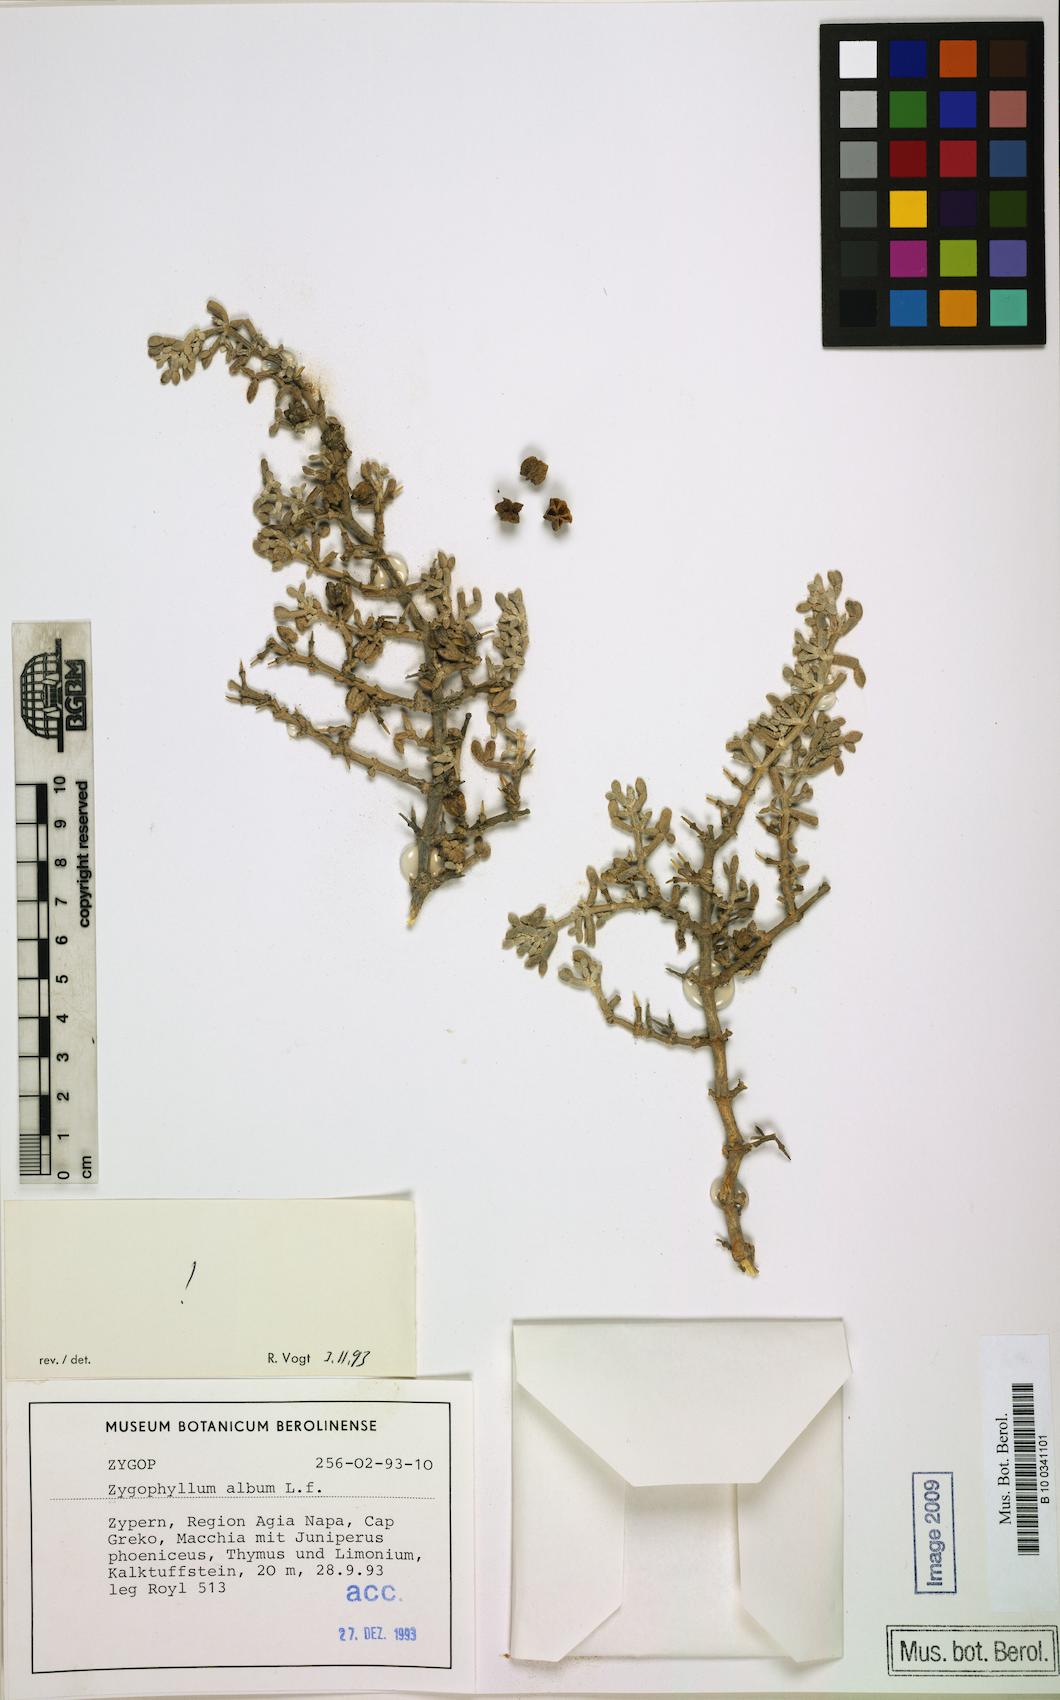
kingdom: Plantae
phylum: Tracheophyta
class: Magnoliopsida
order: Zygophyllales
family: Zygophyllaceae
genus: Tetraena
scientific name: Tetraena alba
